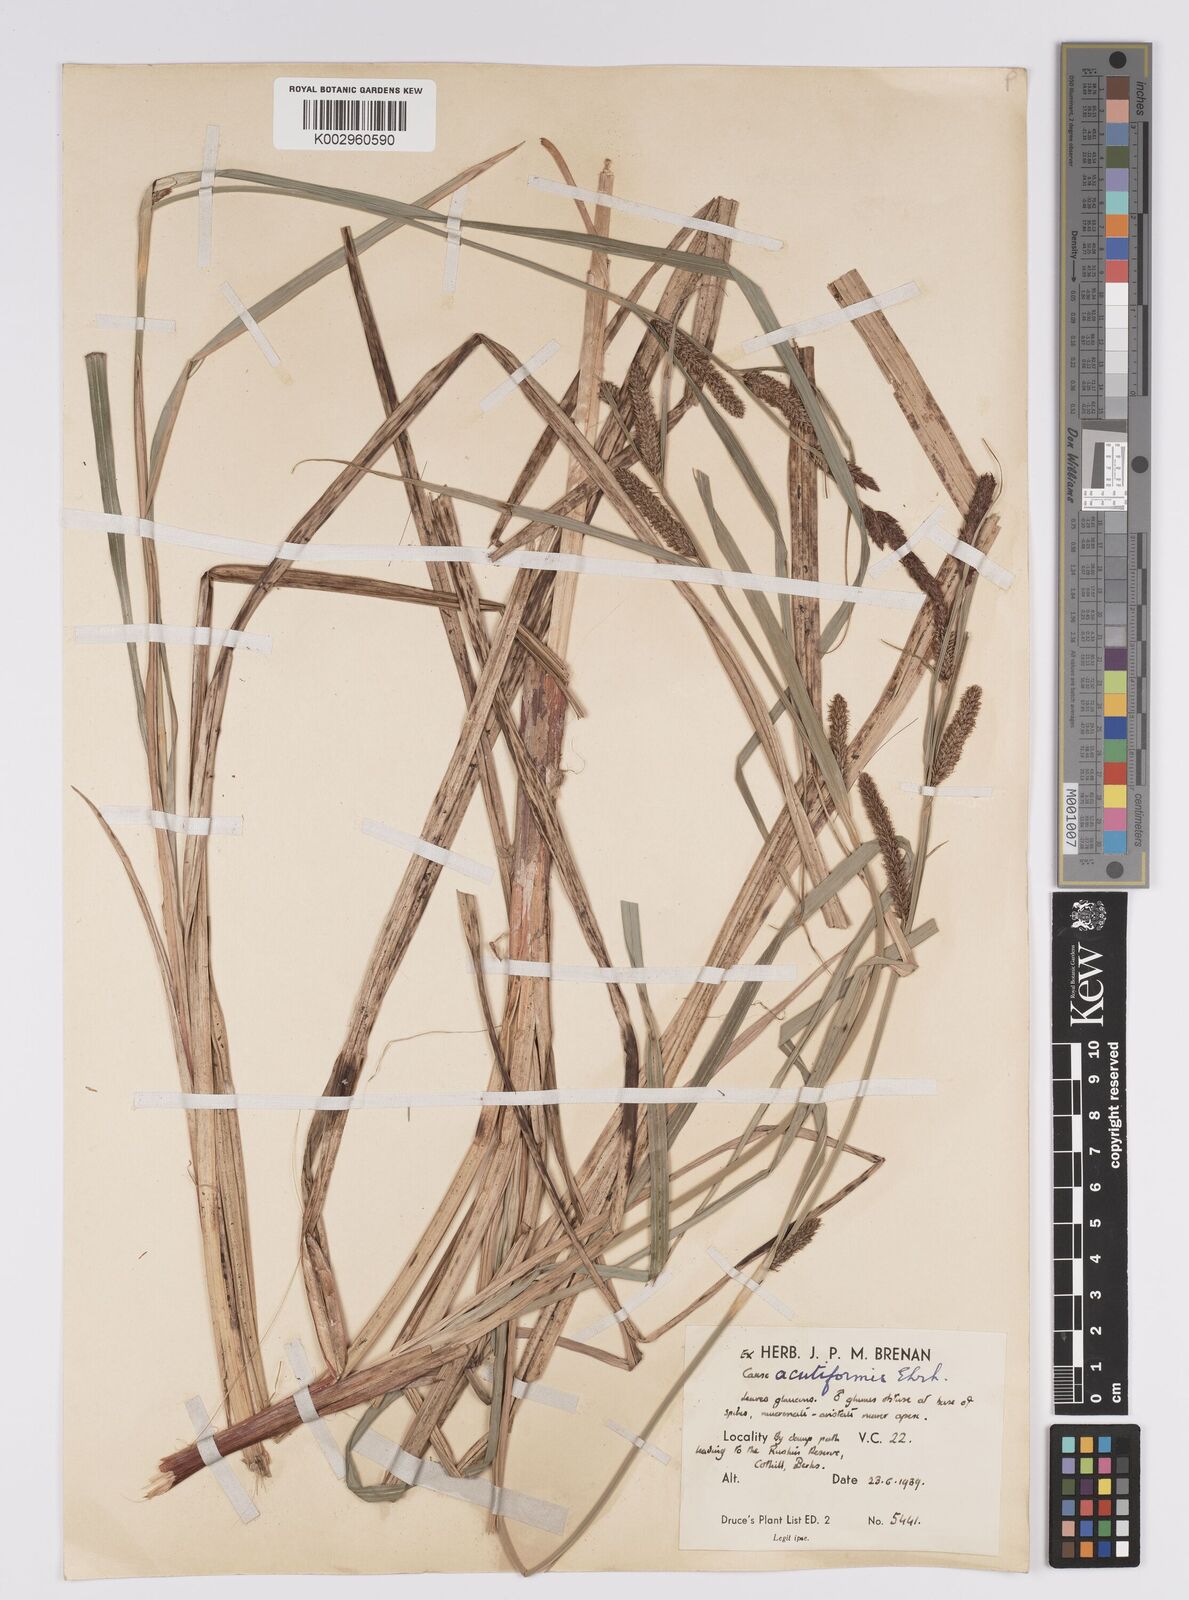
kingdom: Plantae
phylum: Tracheophyta
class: Liliopsida
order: Poales
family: Cyperaceae
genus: Carex
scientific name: Carex acutiformis
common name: Lesser pond-sedge
